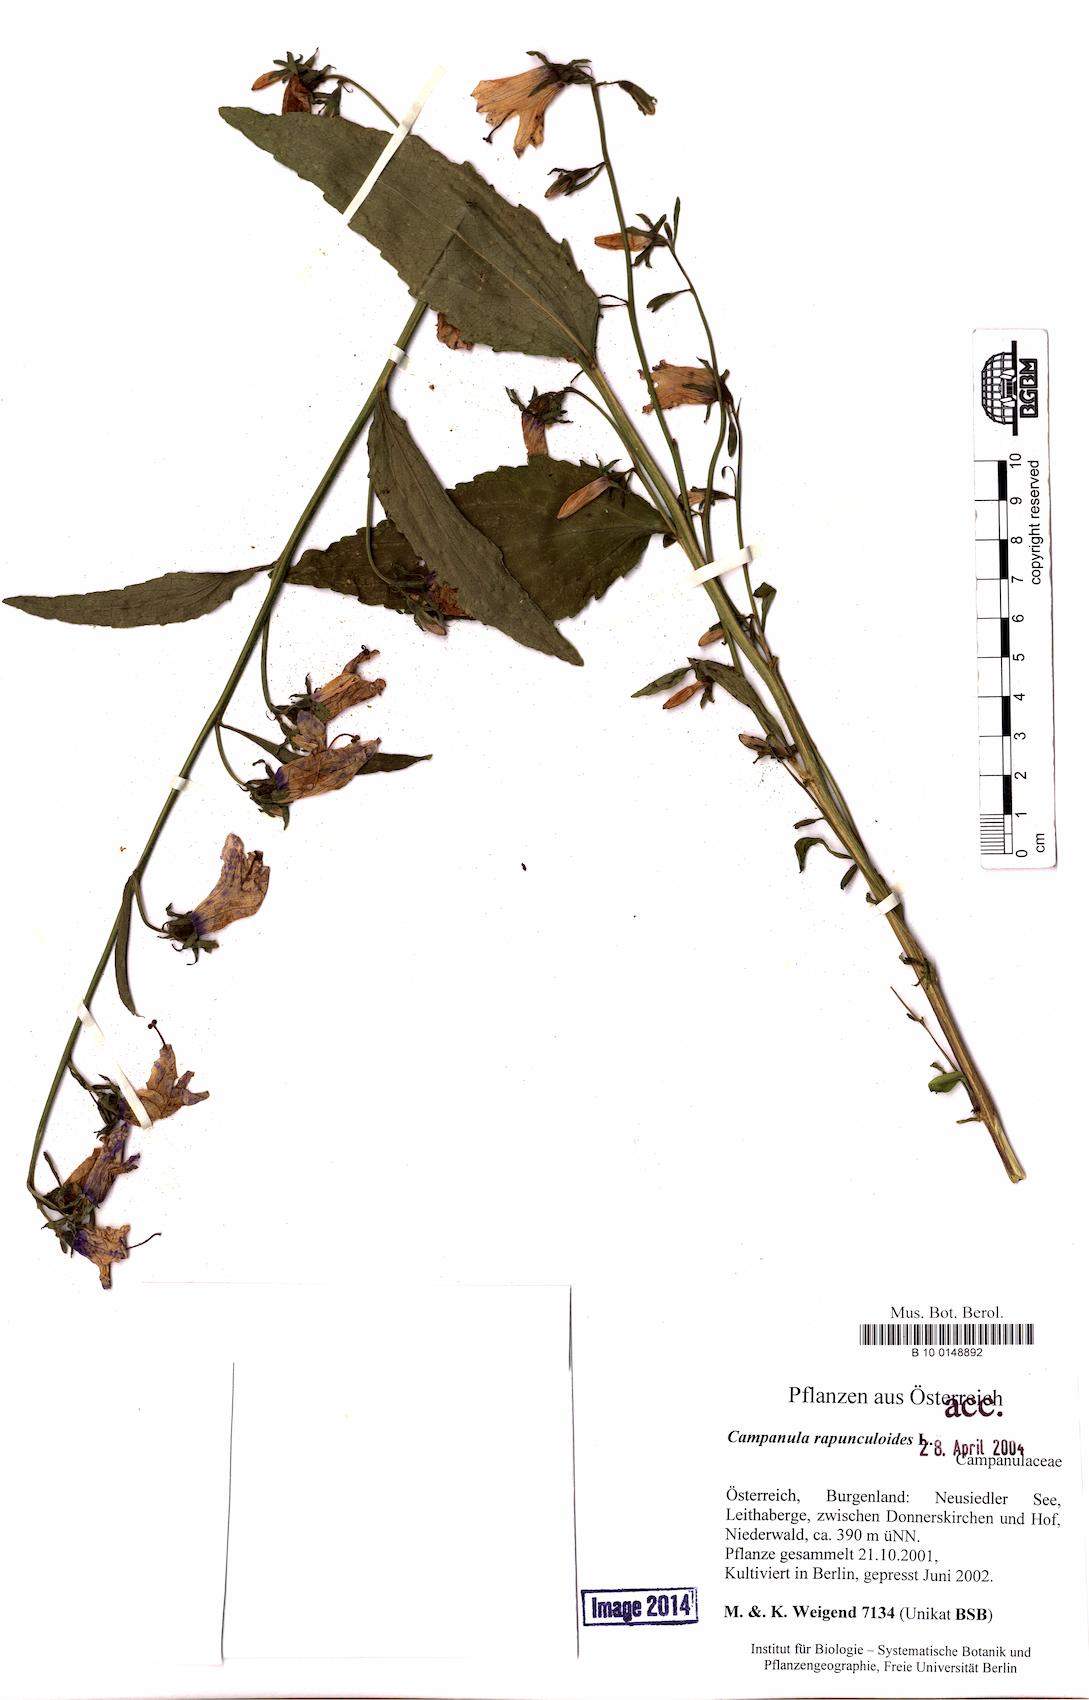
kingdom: Plantae
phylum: Tracheophyta
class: Magnoliopsida
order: Asterales
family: Campanulaceae
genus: Campanula
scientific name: Campanula rapunculoides
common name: Creeping bellflower
